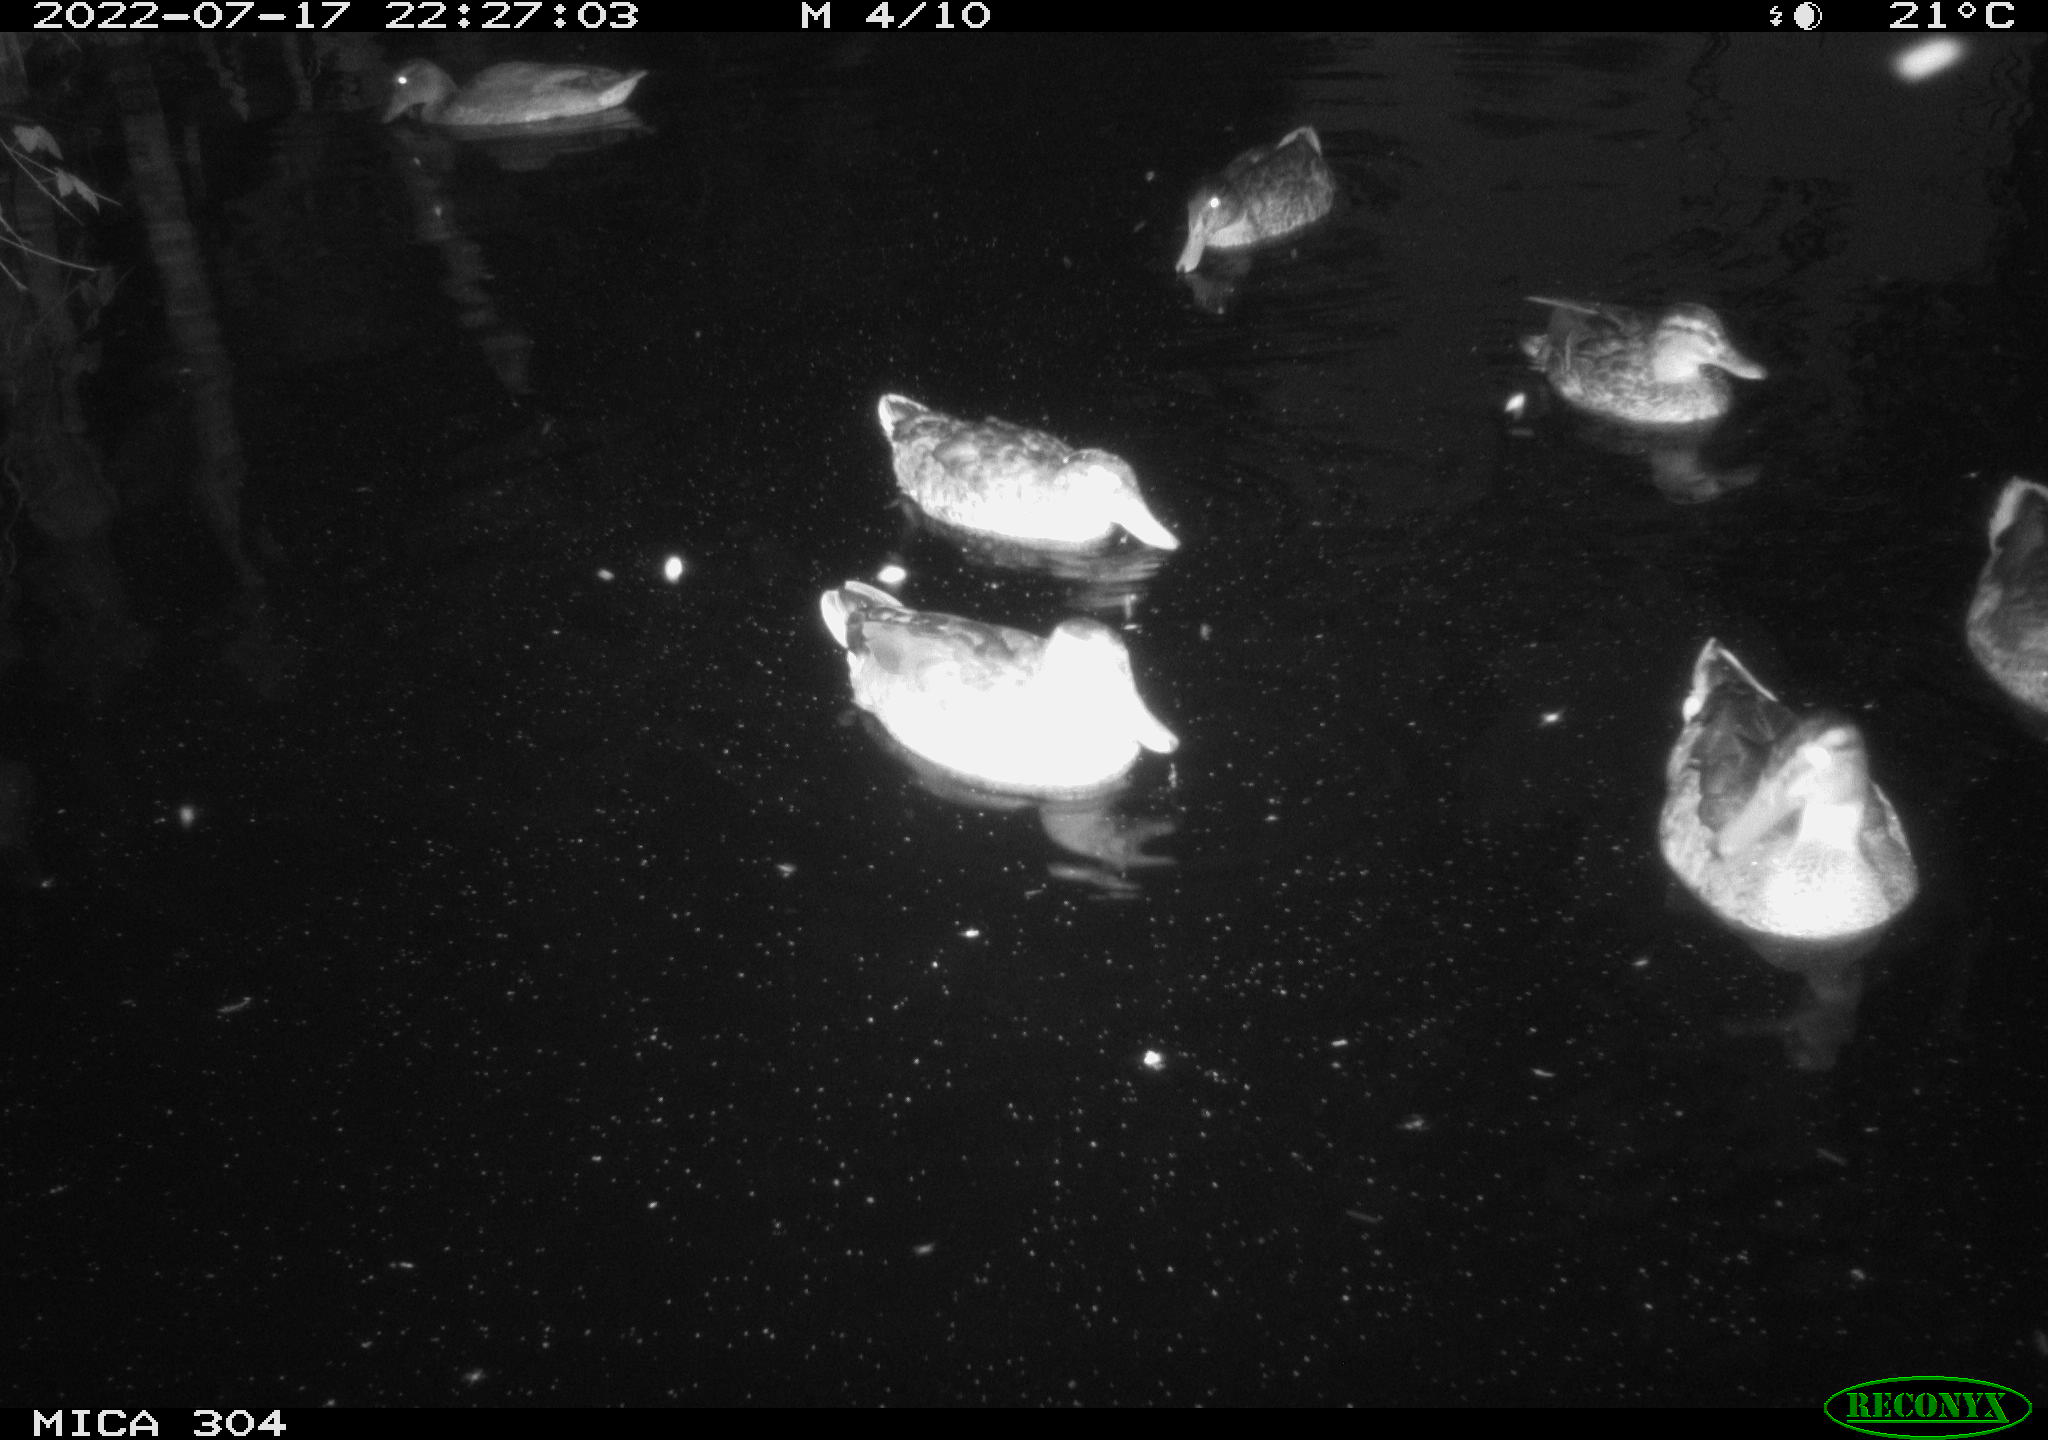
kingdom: Animalia
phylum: Chordata
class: Aves
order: Anseriformes
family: Anatidae
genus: Mareca
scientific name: Mareca strepera
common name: Gadwall
